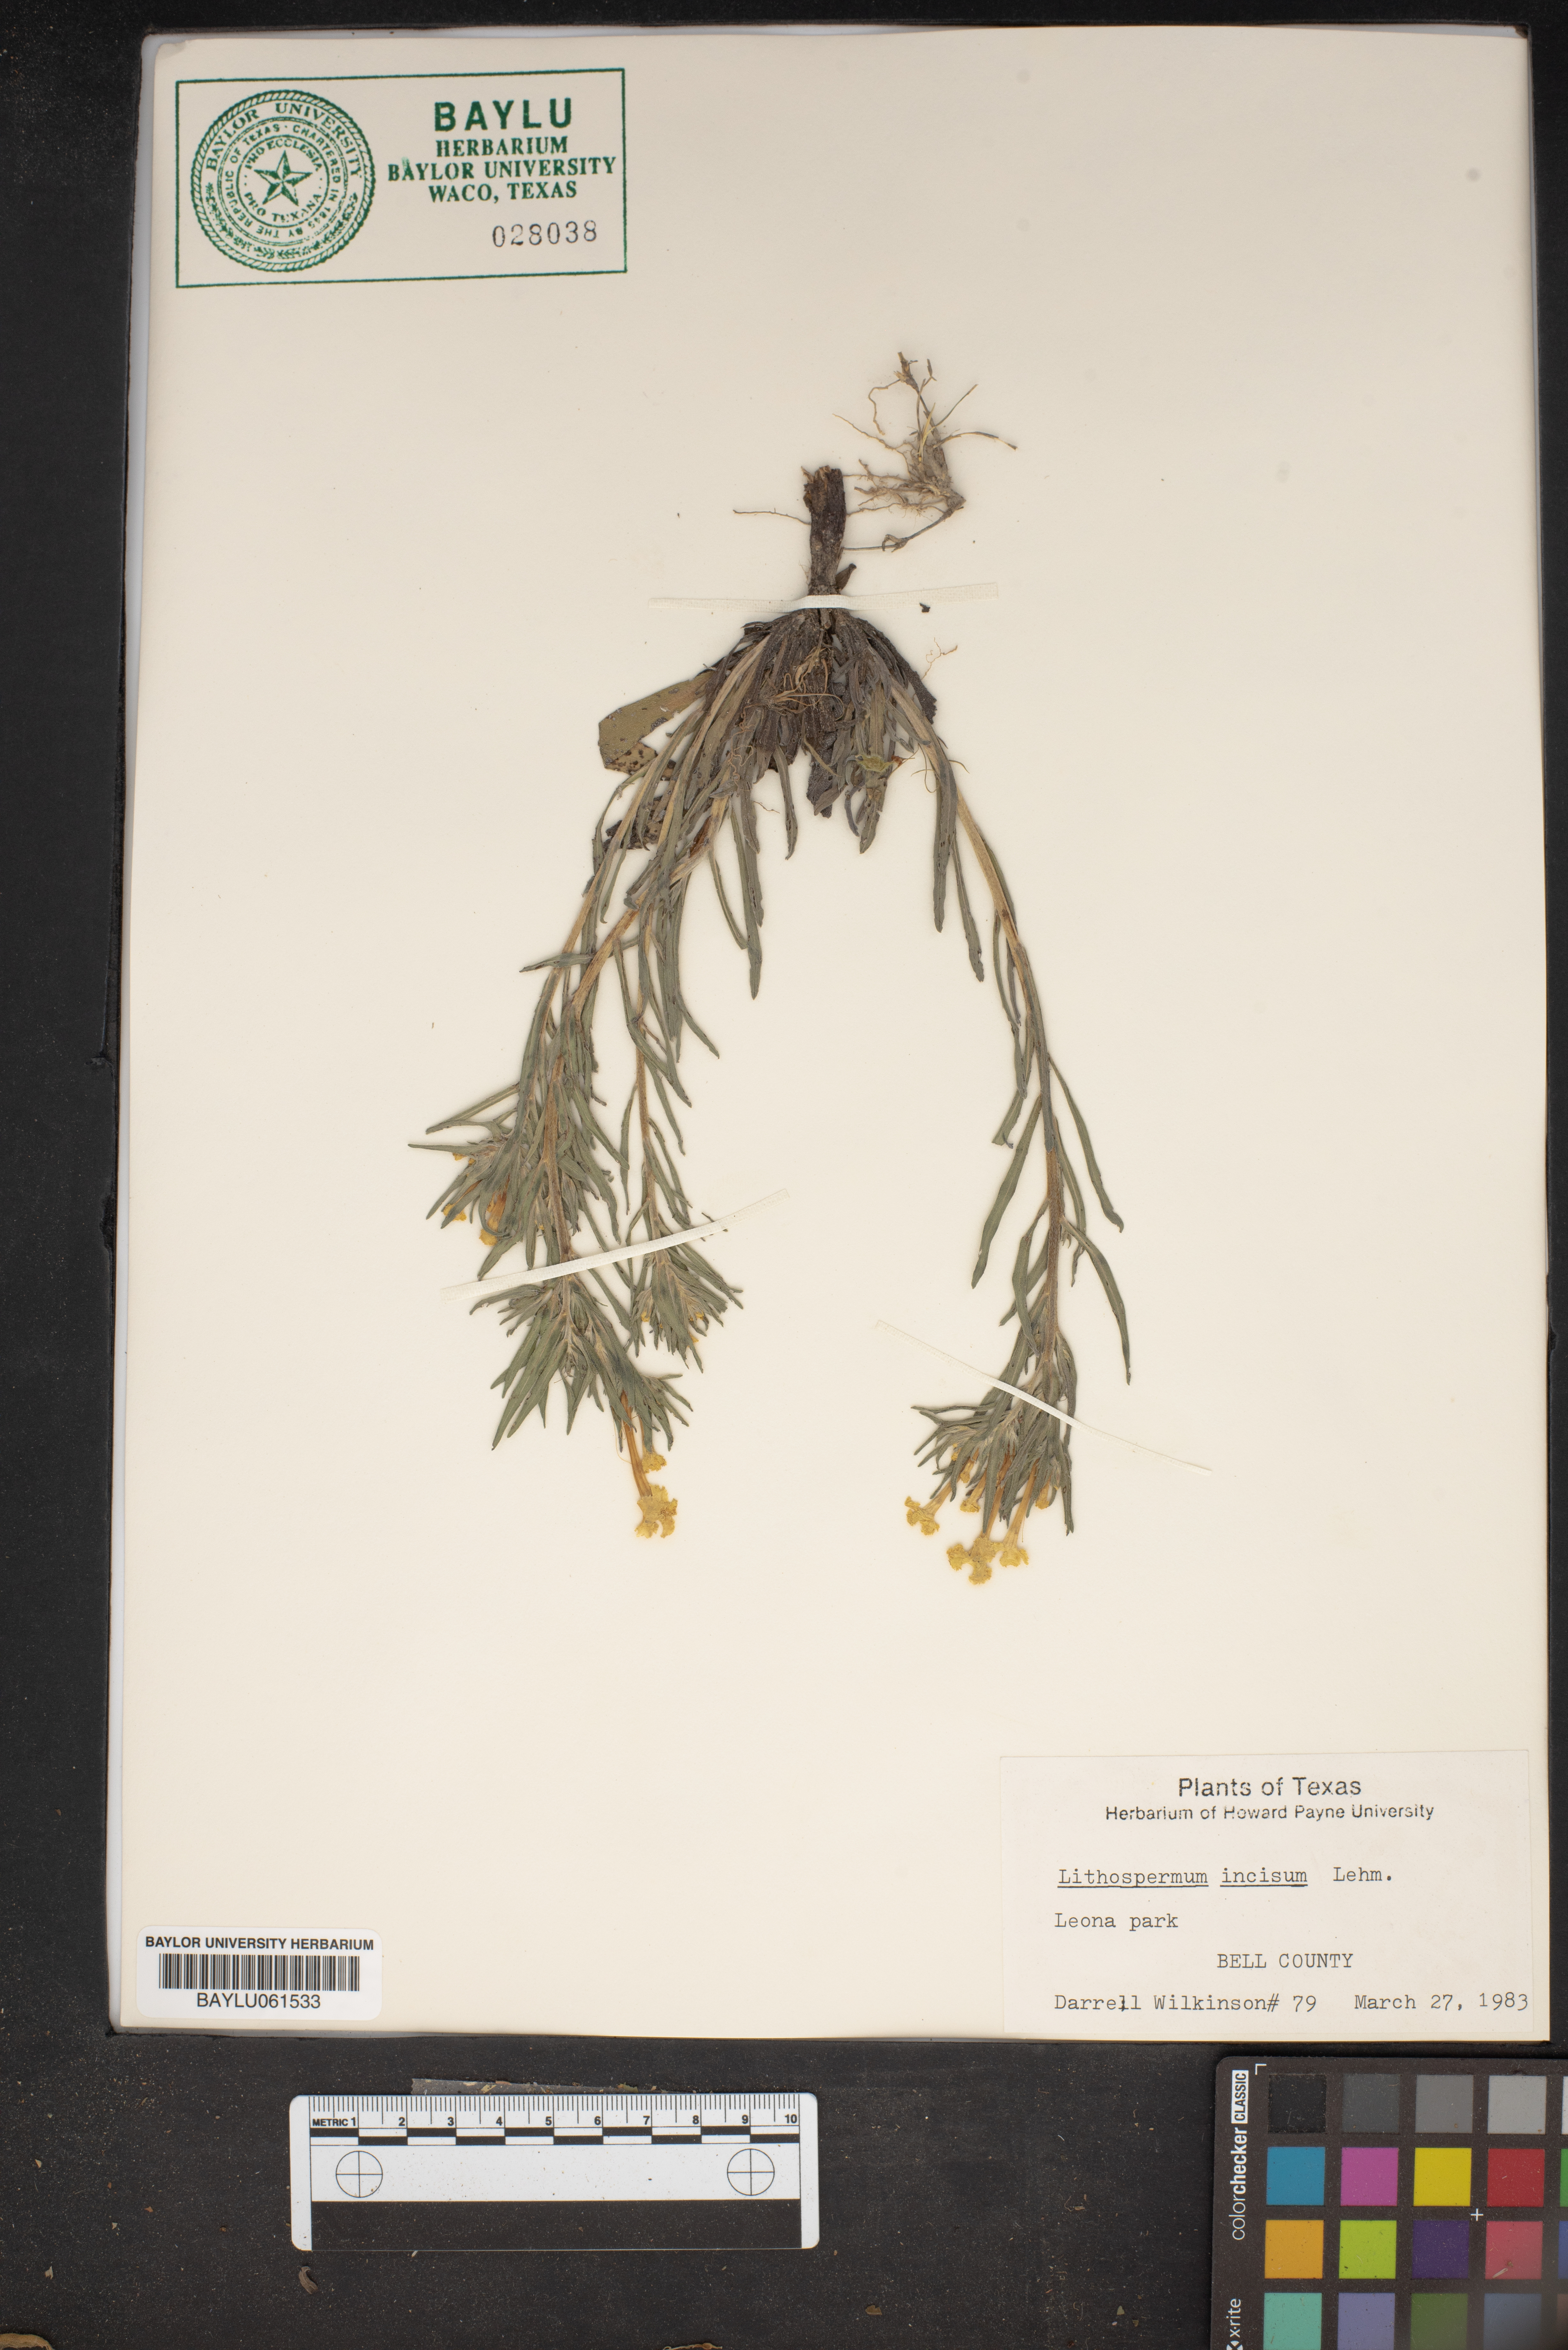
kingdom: Plantae
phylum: Tracheophyta
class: Magnoliopsida
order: Boraginales
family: Boraginaceae
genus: Lithospermum
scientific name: Lithospermum incisum
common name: Fringed gromwell
